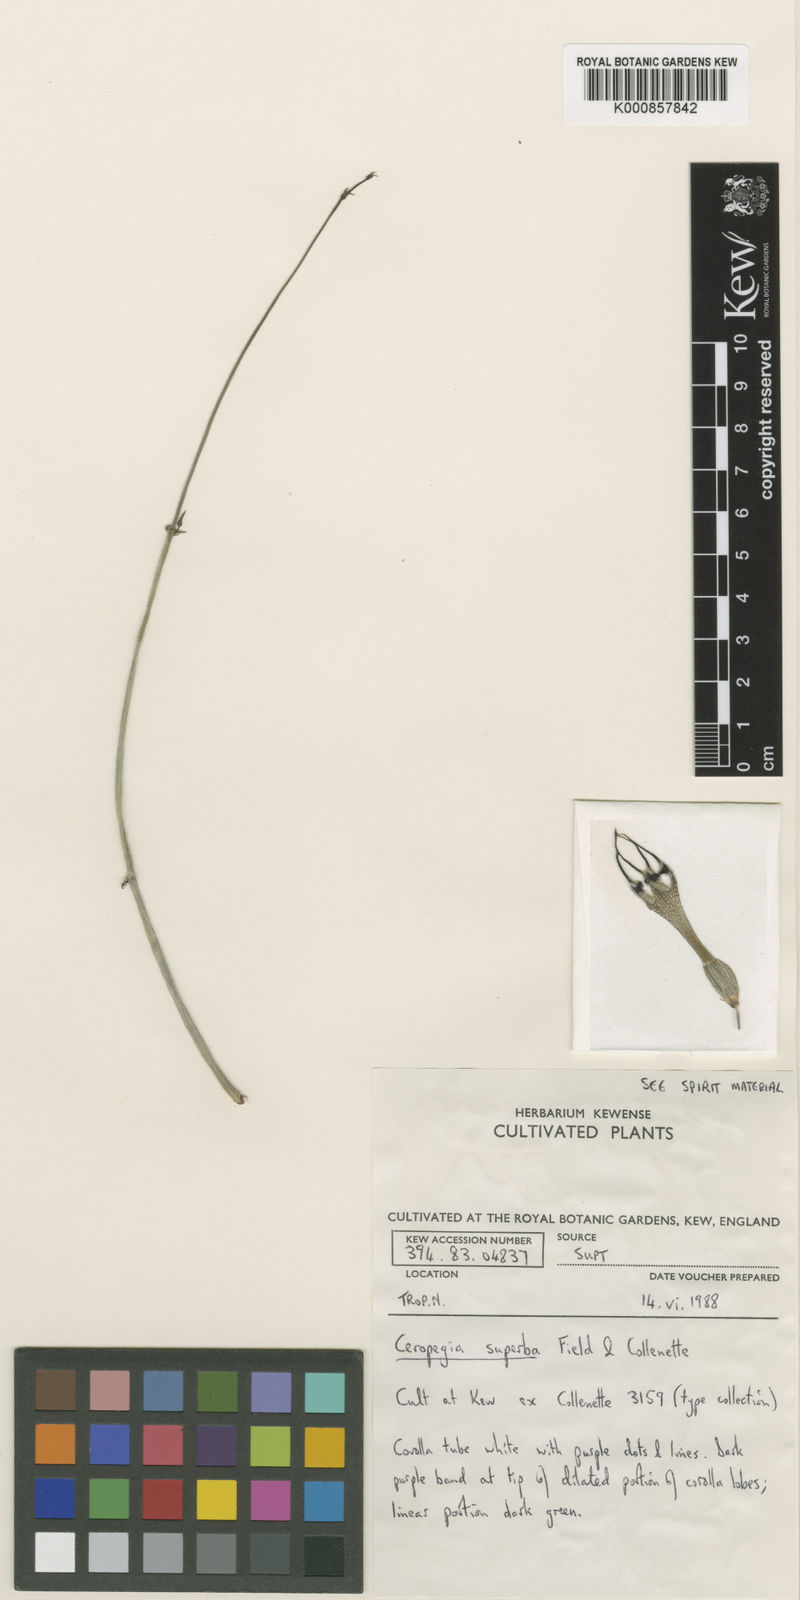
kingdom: Plantae
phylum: Tracheophyta
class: Magnoliopsida
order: Gentianales
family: Apocynaceae
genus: Ceropegia
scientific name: Ceropegia arabica
